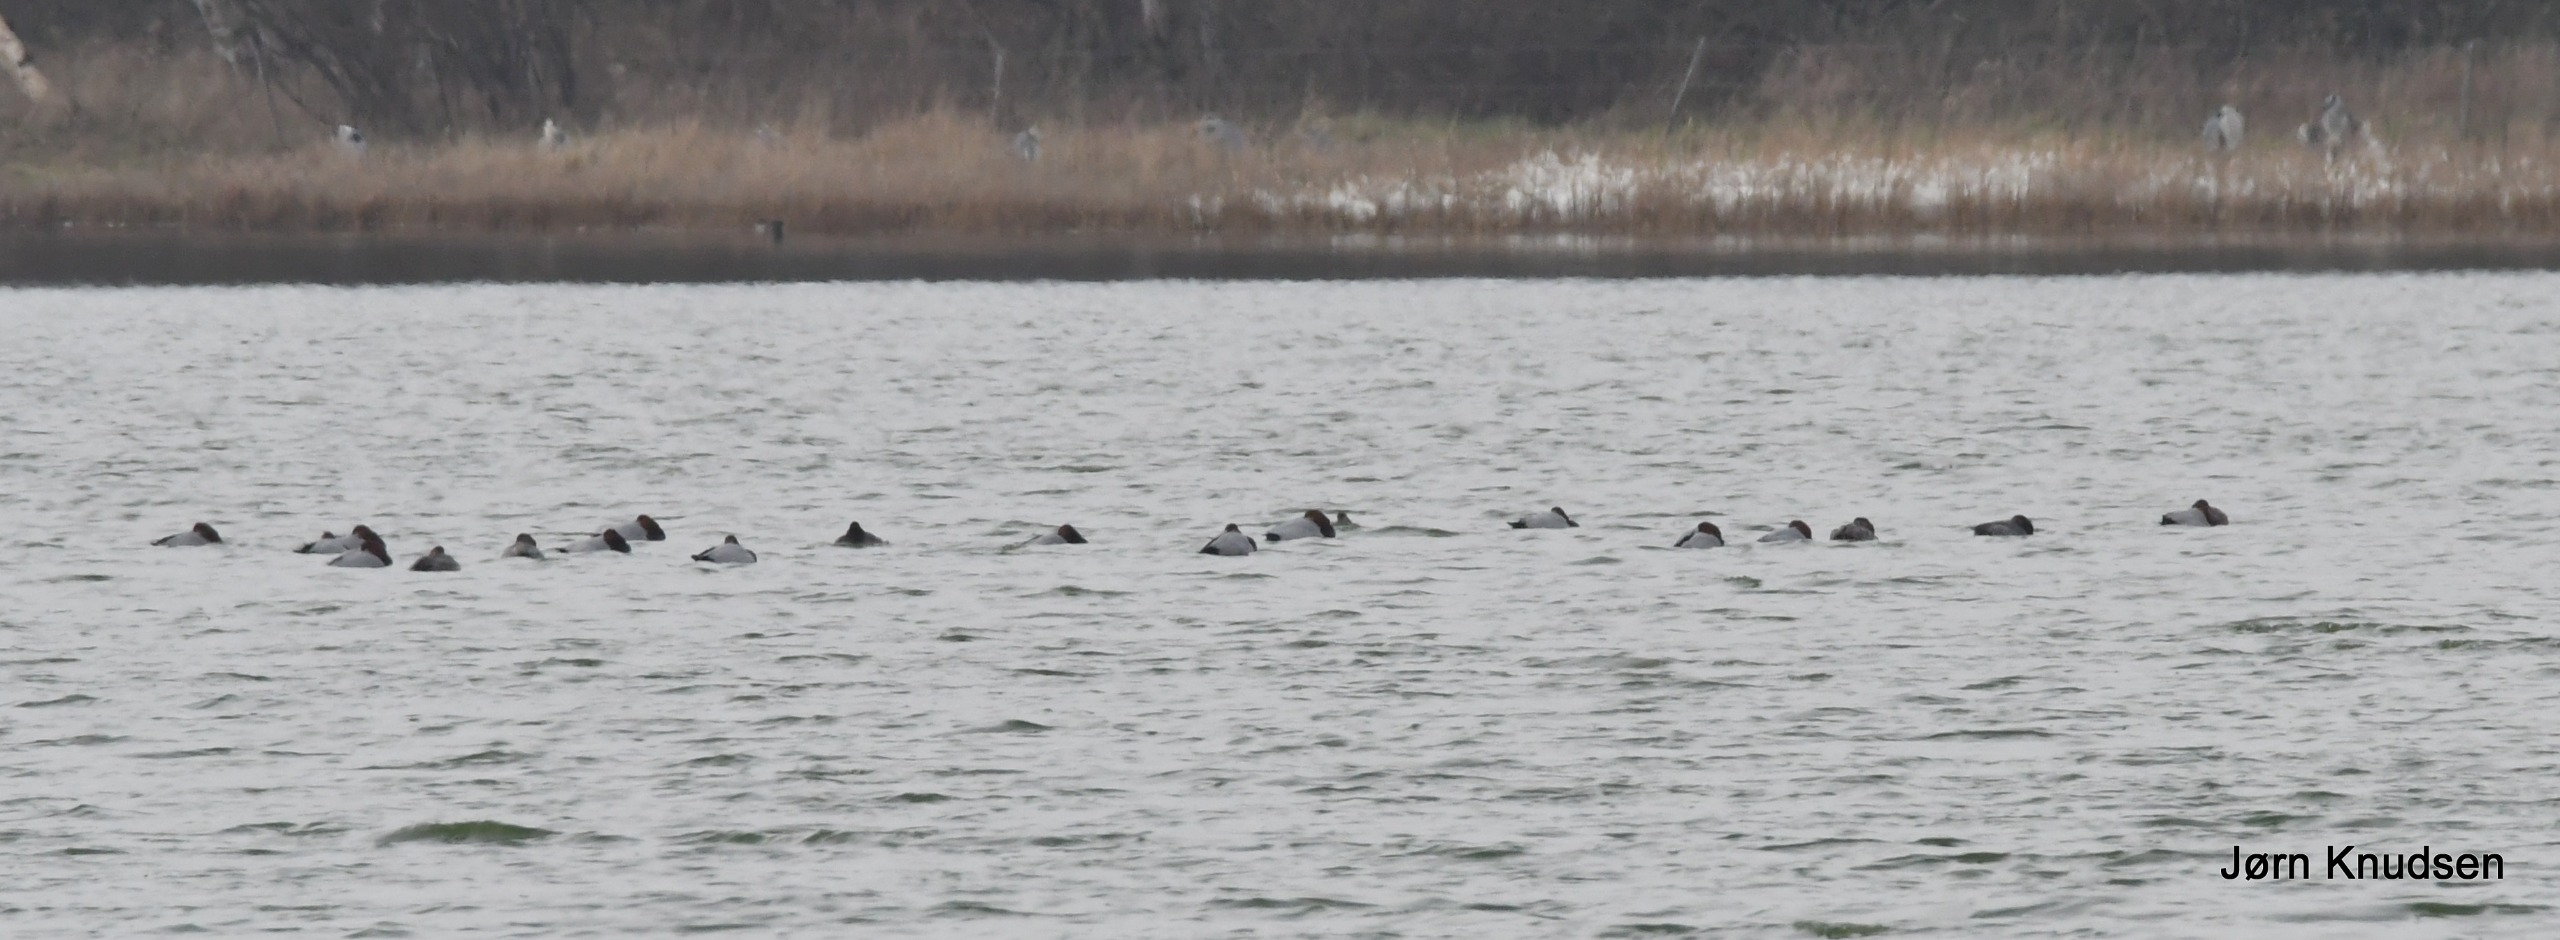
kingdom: Animalia
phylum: Chordata
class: Aves
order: Anseriformes
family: Anatidae
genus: Aythya
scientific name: Aythya ferina
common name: Taffeland
